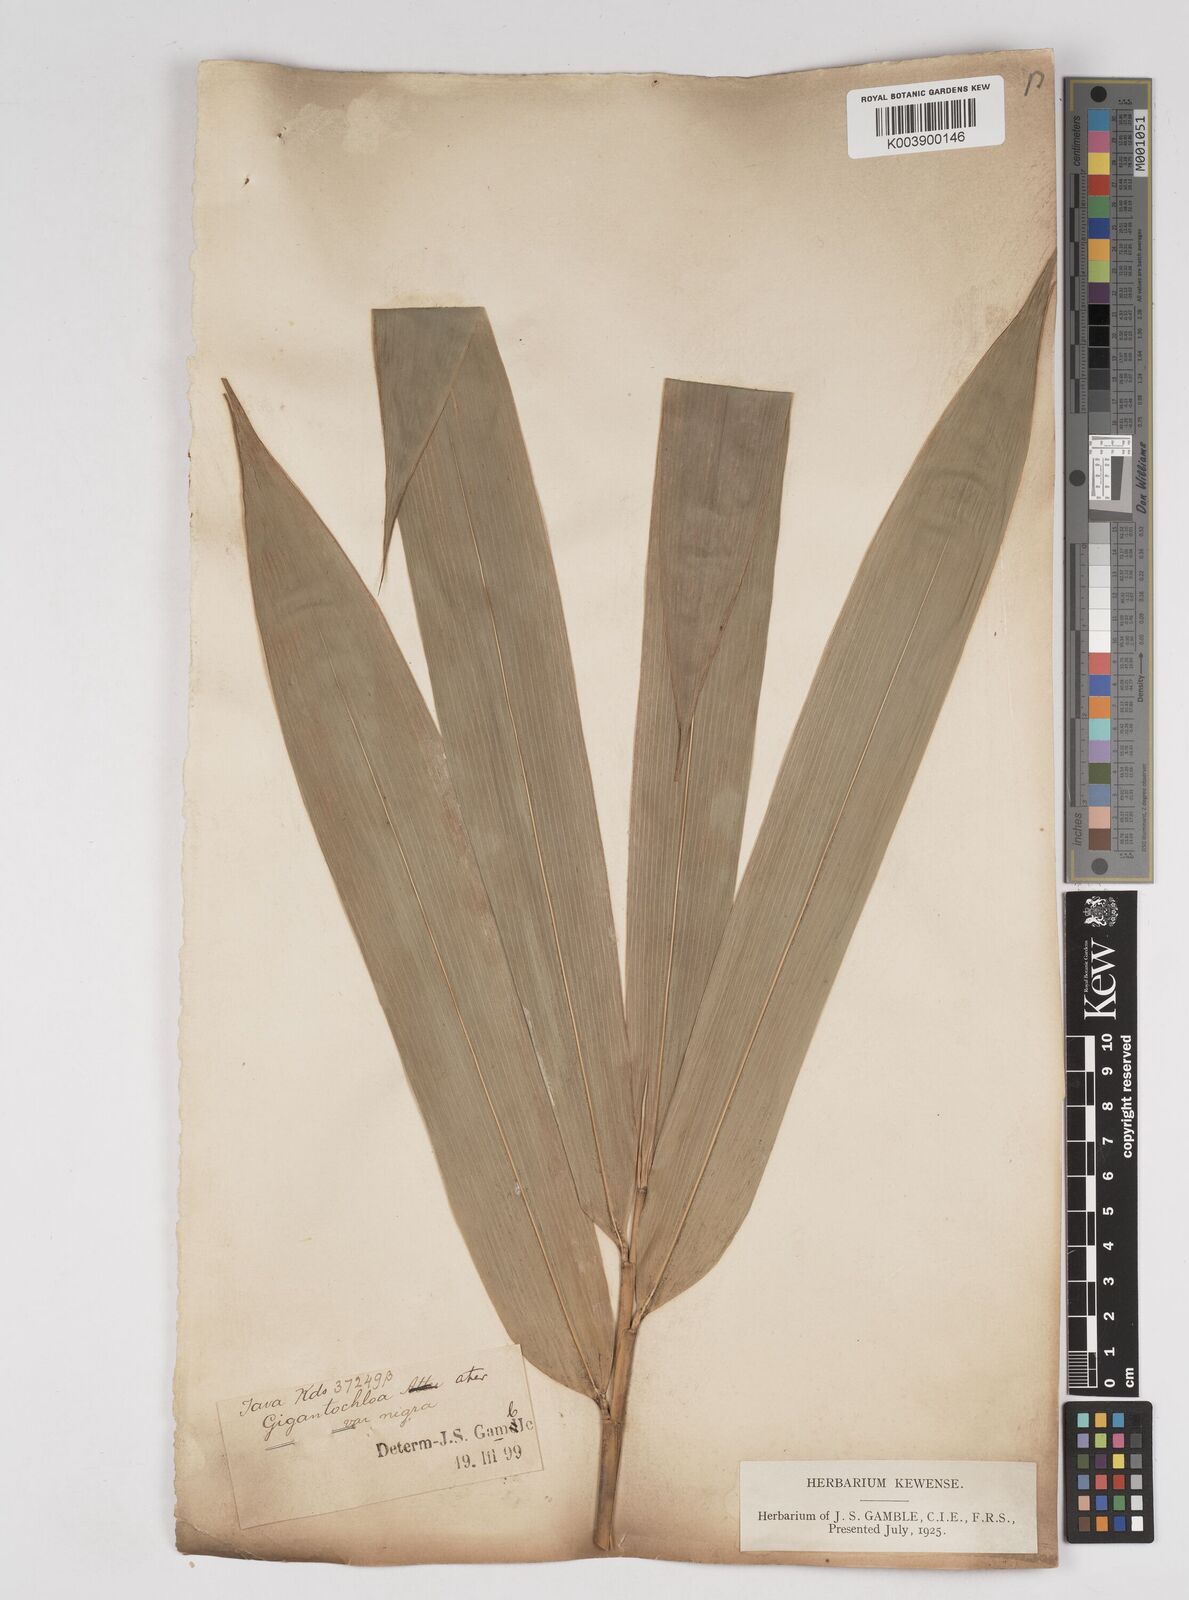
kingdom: Plantae
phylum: Tracheophyta
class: Liliopsida
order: Poales
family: Poaceae
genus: Gigantochloa
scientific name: Gigantochloa atter
